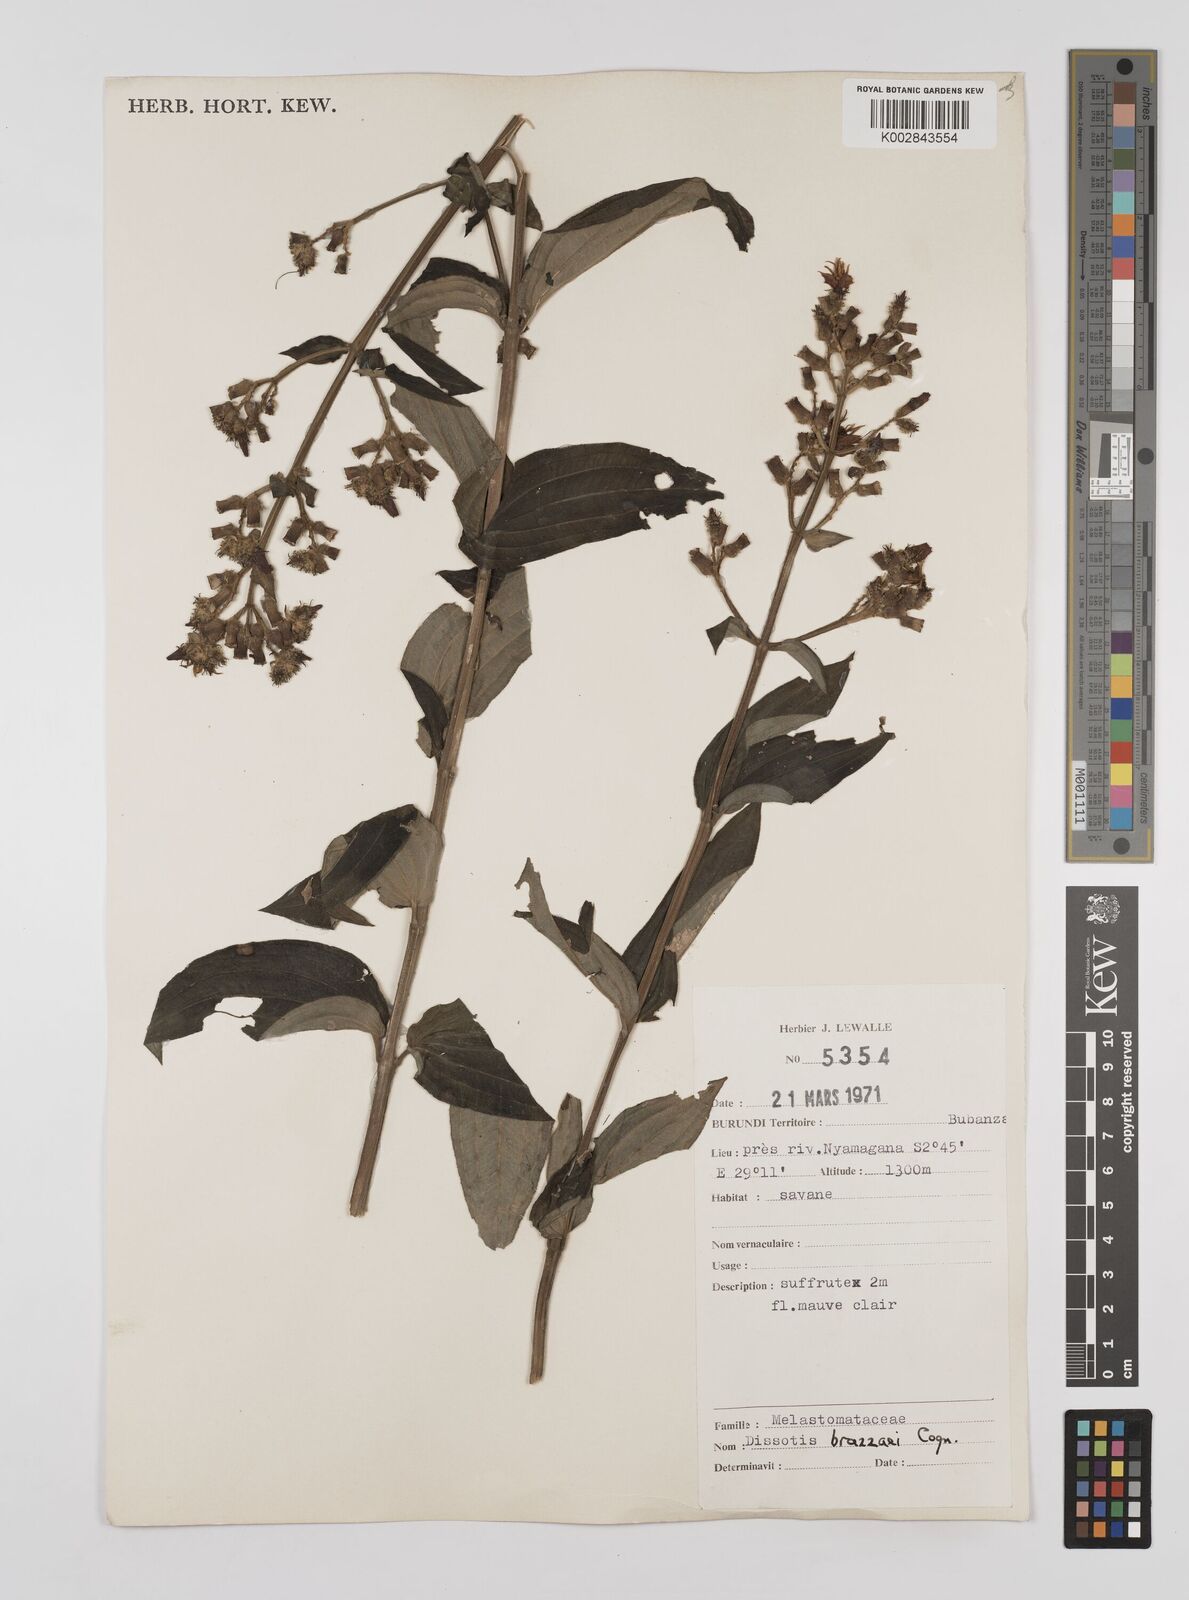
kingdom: Plantae
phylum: Tracheophyta
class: Magnoliopsida
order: Myrtales
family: Melastomataceae
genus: Dupineta
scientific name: Dupineta brazzae
